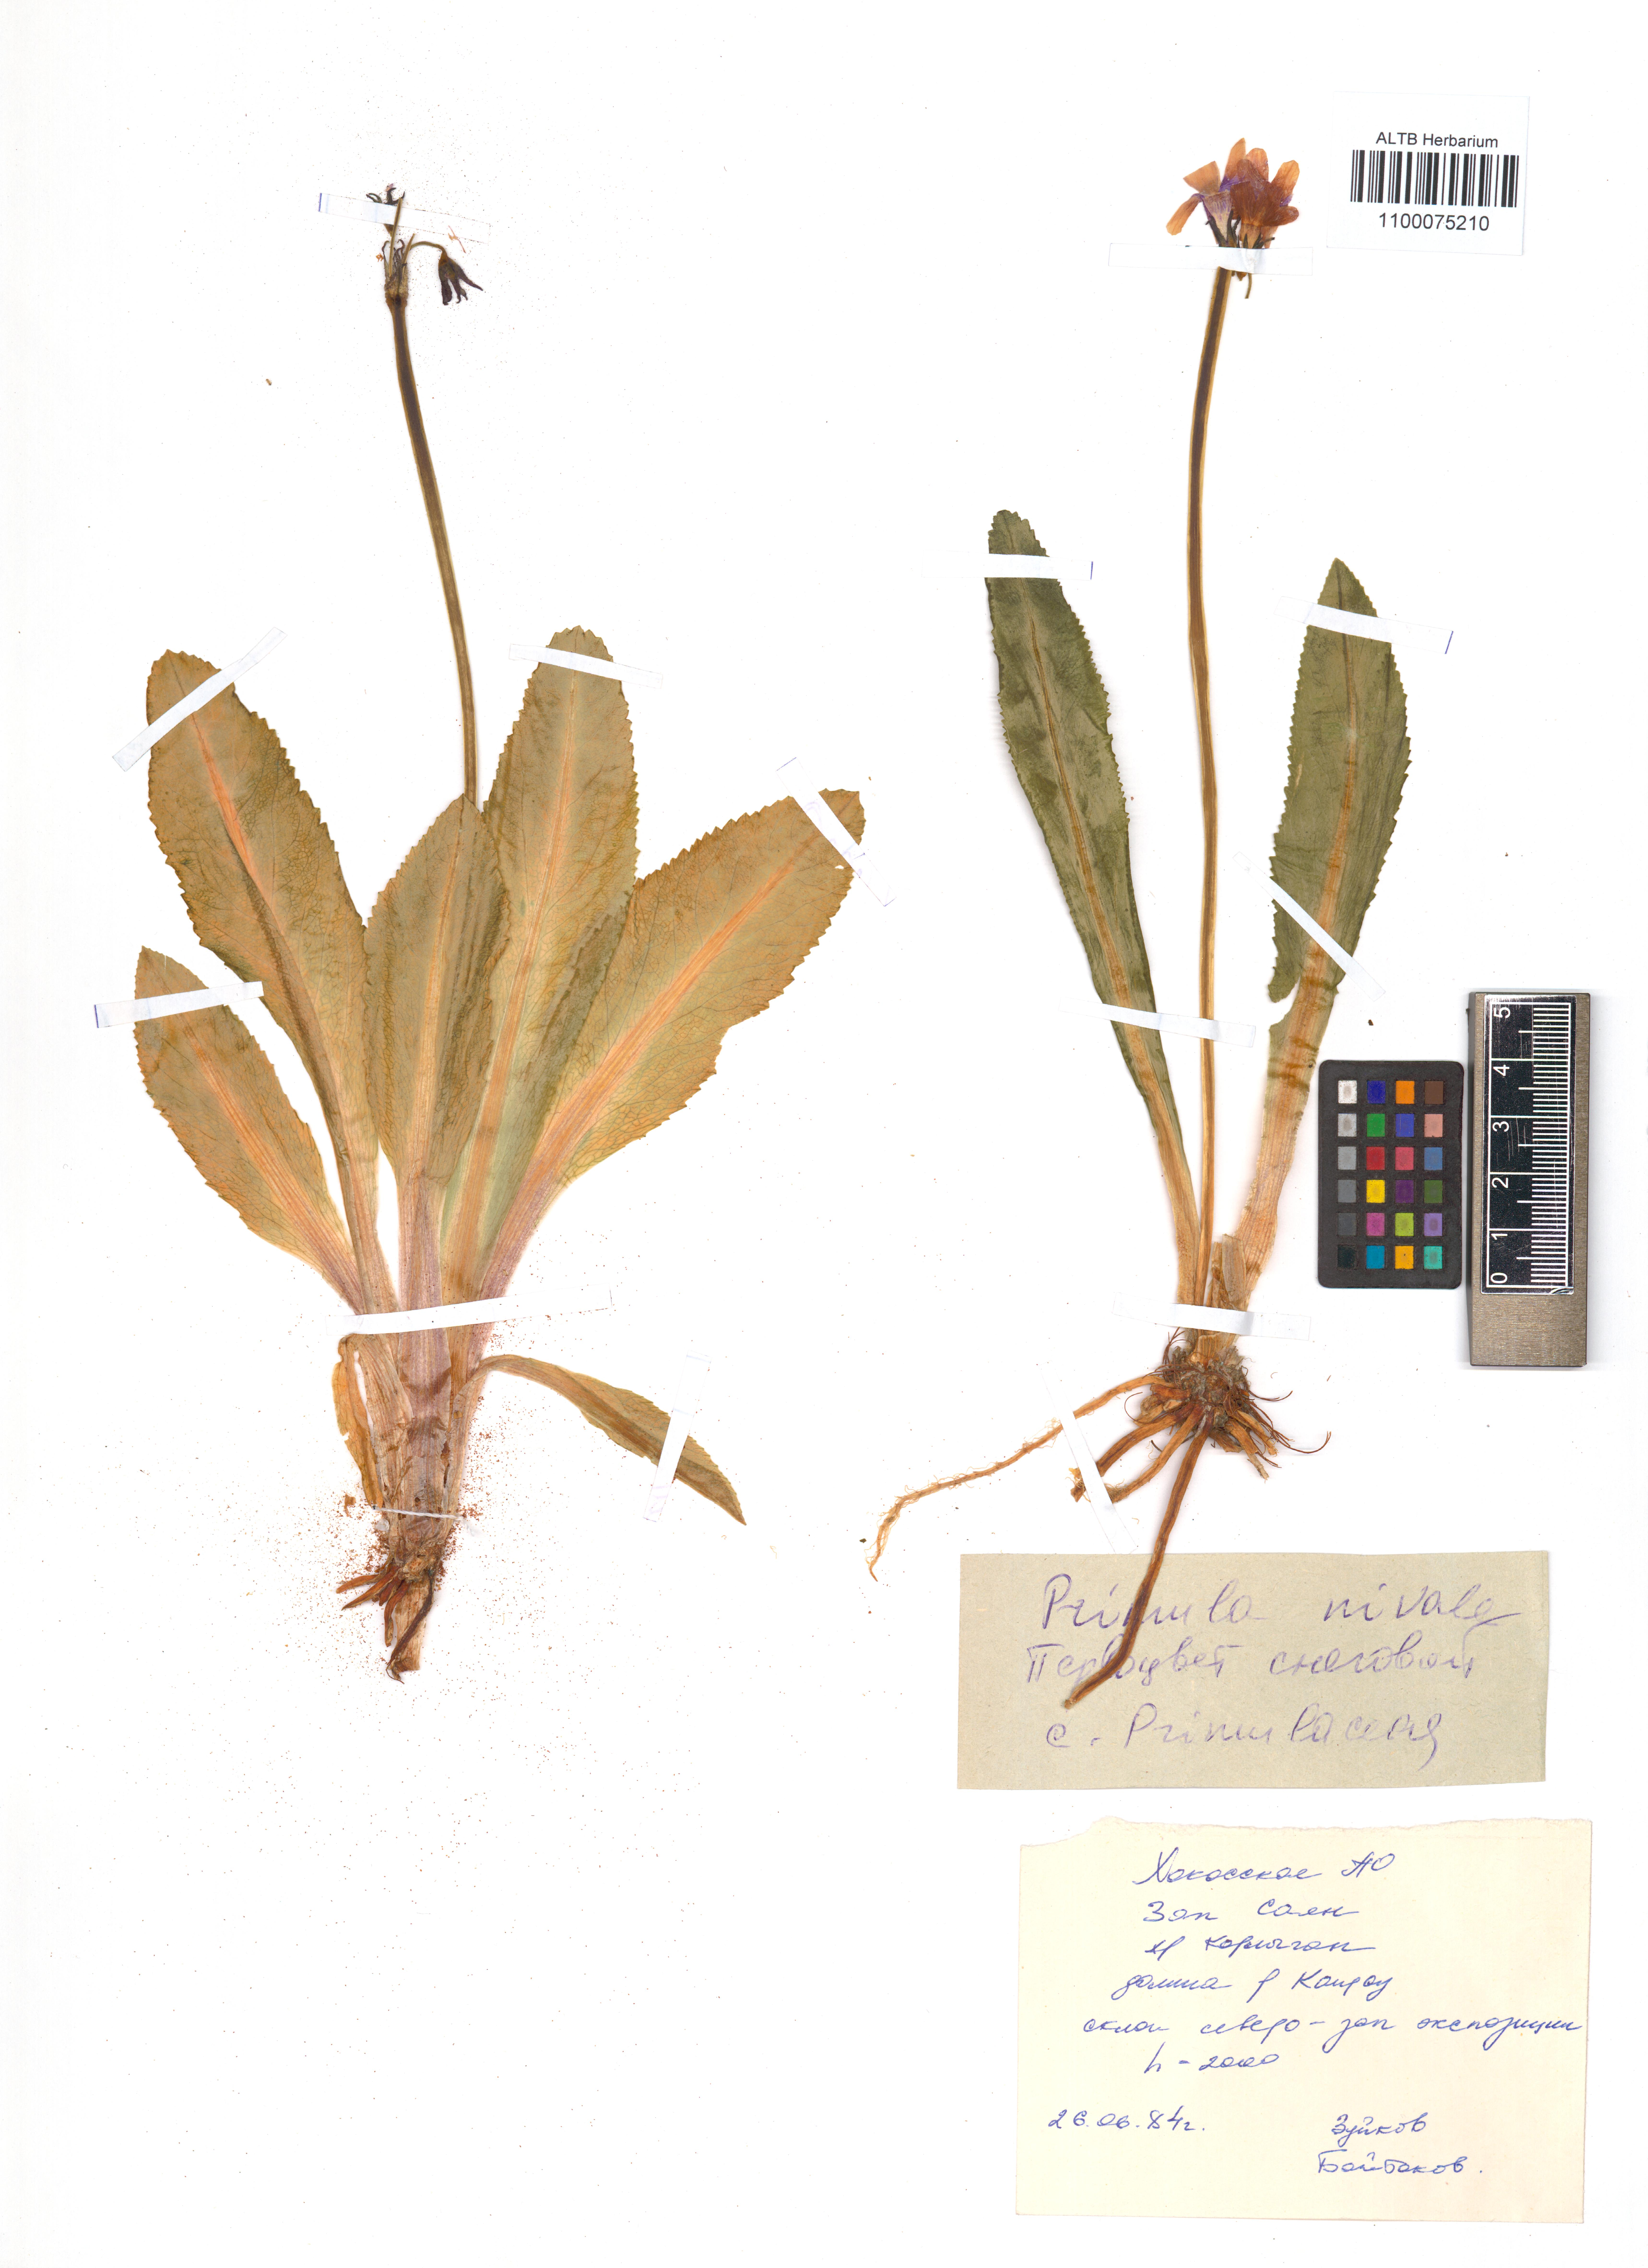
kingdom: Plantae
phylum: Tracheophyta
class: Magnoliopsida
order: Ericales
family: Primulaceae
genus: Primula
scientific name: Primula nivalis
